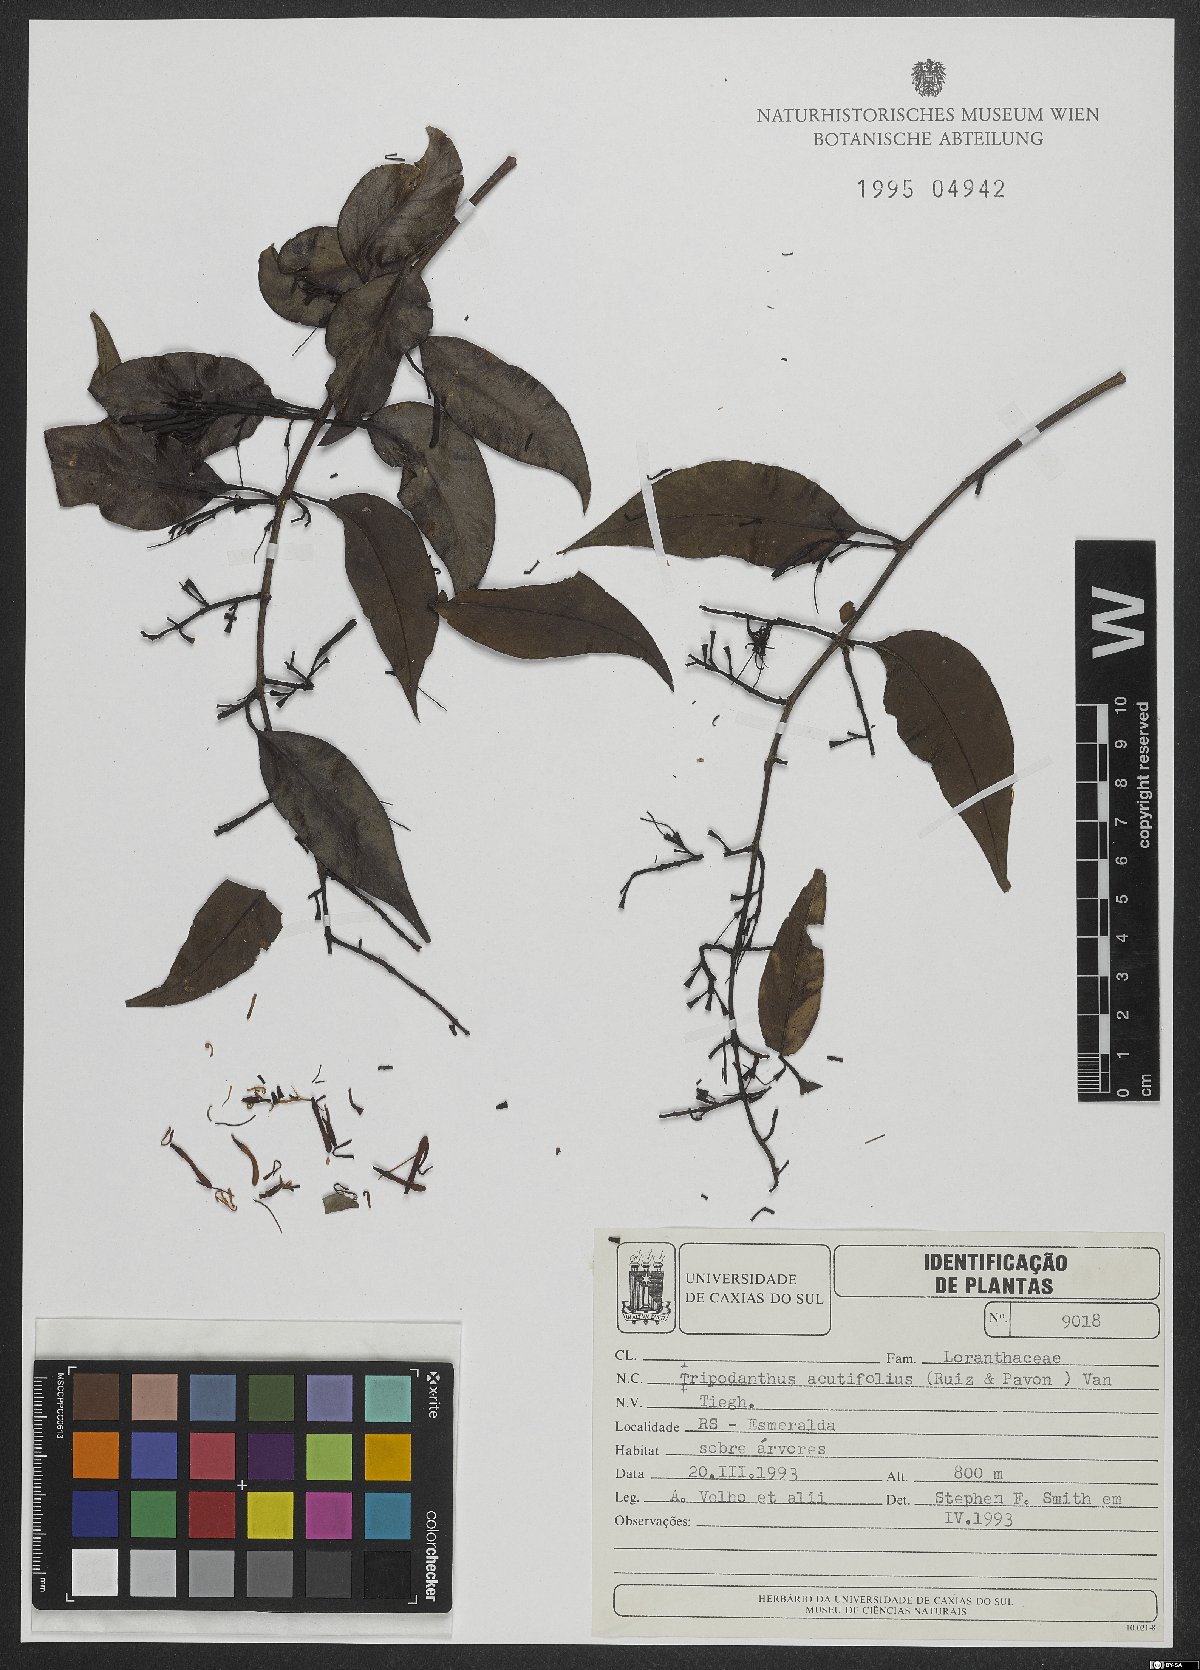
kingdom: Plantae
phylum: Tracheophyta
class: Magnoliopsida
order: Santalales
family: Loranthaceae
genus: Tripodanthus
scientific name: Tripodanthus acutifolius
